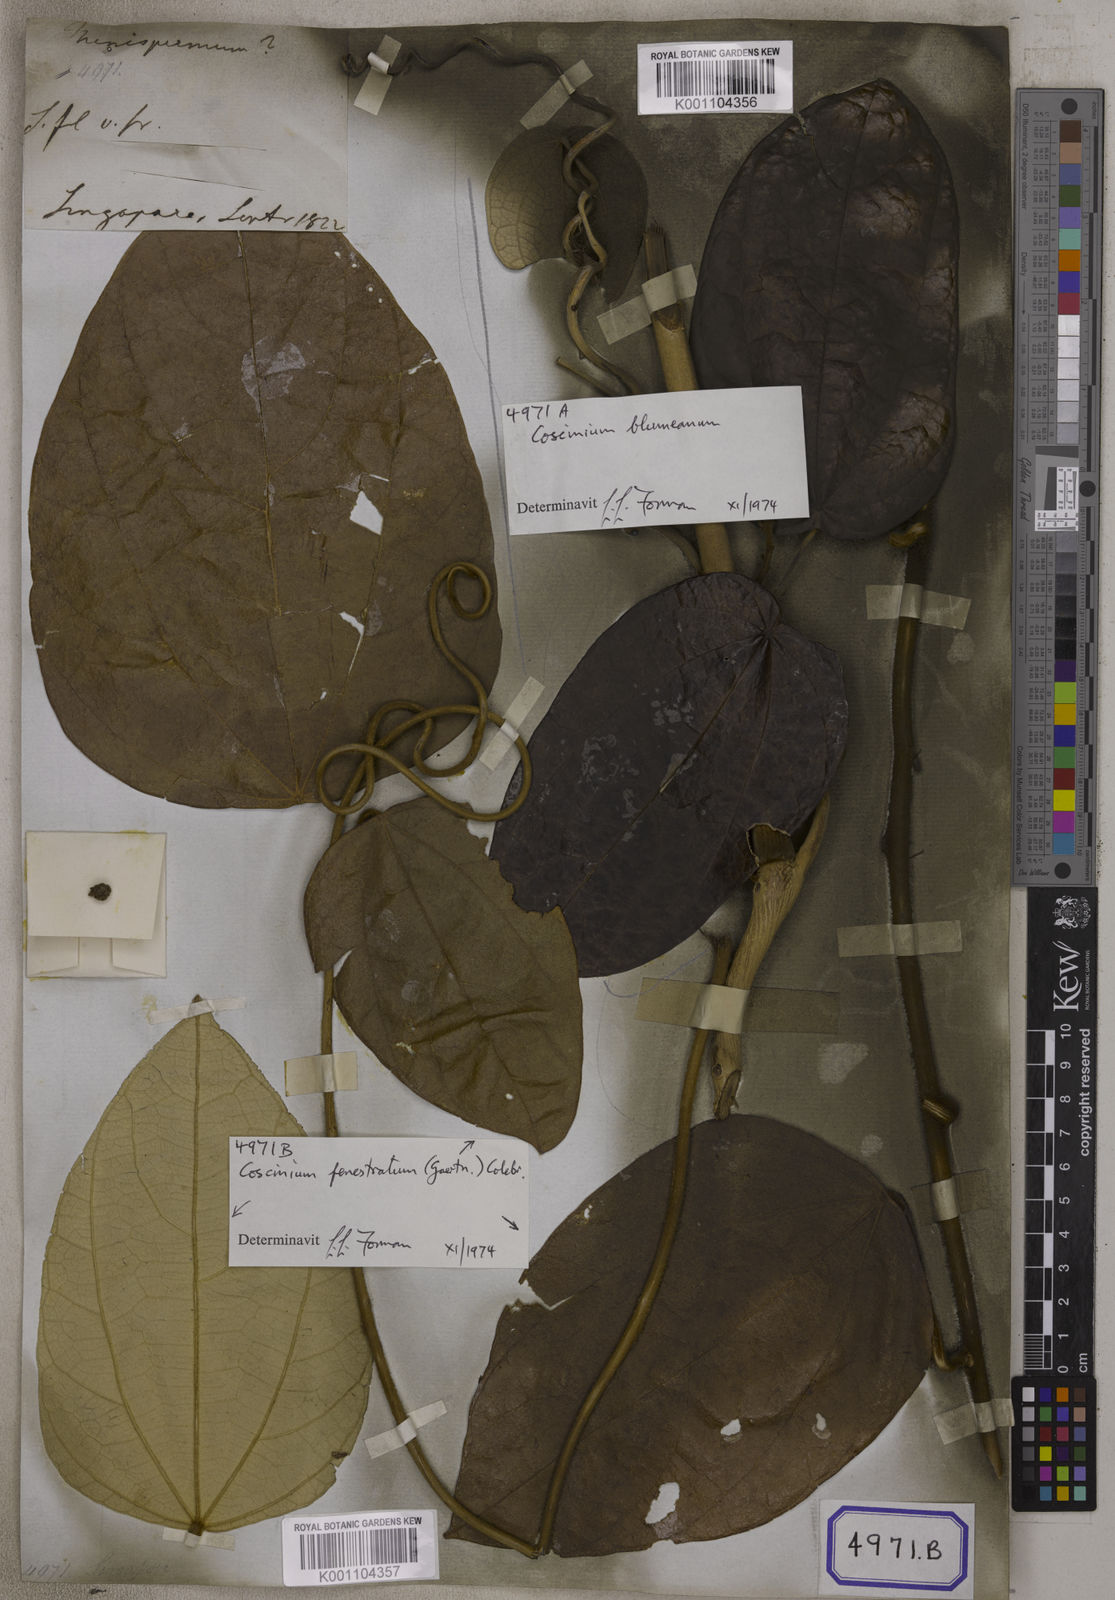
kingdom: Plantae
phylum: Tracheophyta
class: Magnoliopsida
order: Ranunculales
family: Menispermaceae
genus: Cocculus
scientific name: Cocculus
